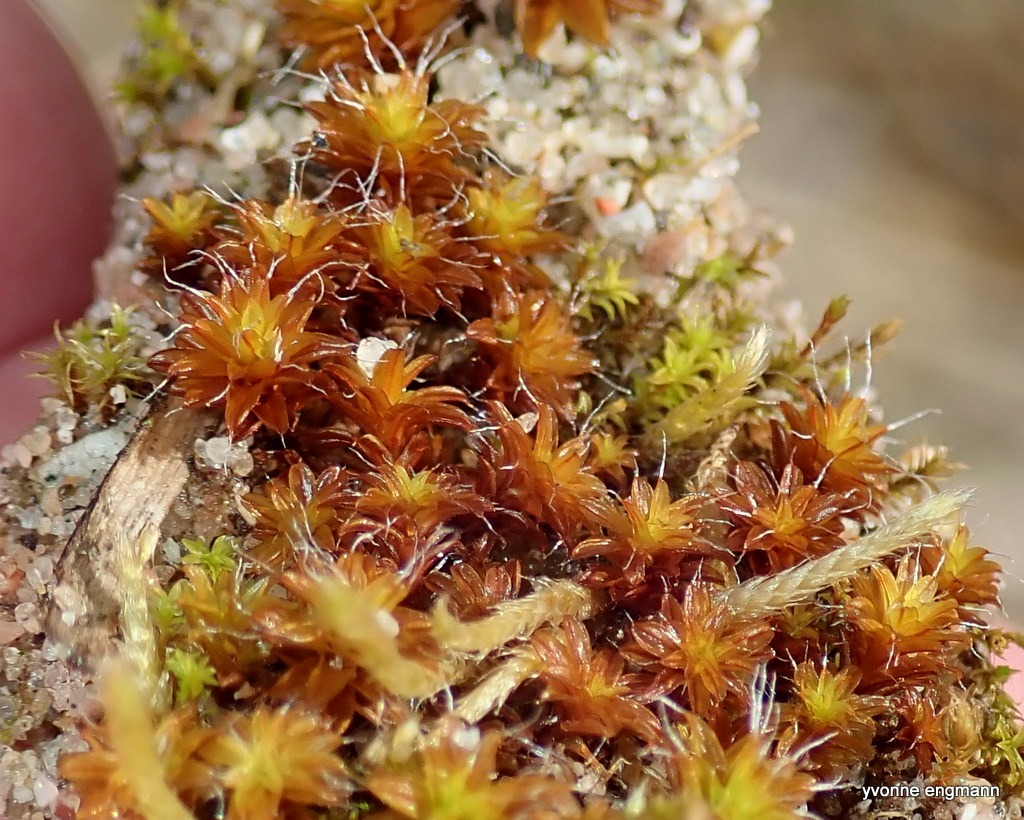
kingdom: Plantae
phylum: Bryophyta
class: Bryopsida
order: Pottiales
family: Pottiaceae
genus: Syntrichia
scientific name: Syntrichia ruralis
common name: Tag-hårstjerne
